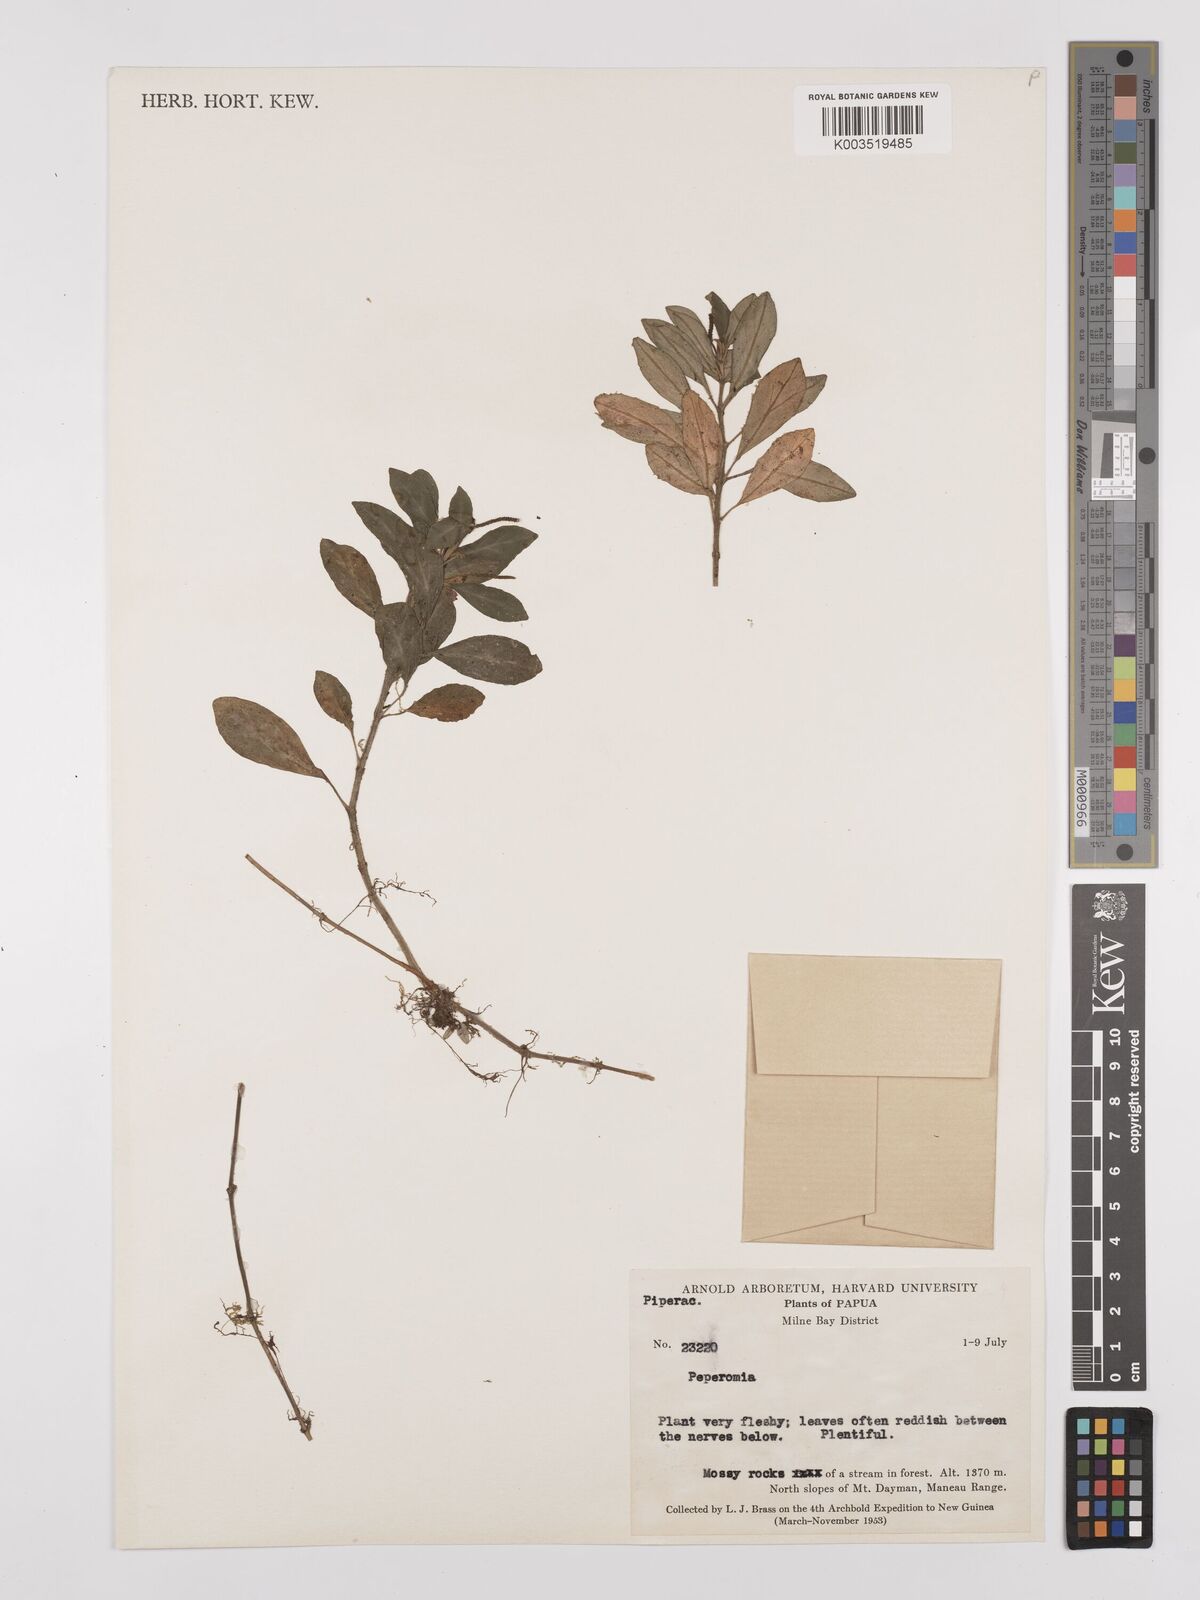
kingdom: Plantae
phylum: Tracheophyta
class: Magnoliopsida
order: Piperales
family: Piperaceae
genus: Peperomia
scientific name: Peperomia
